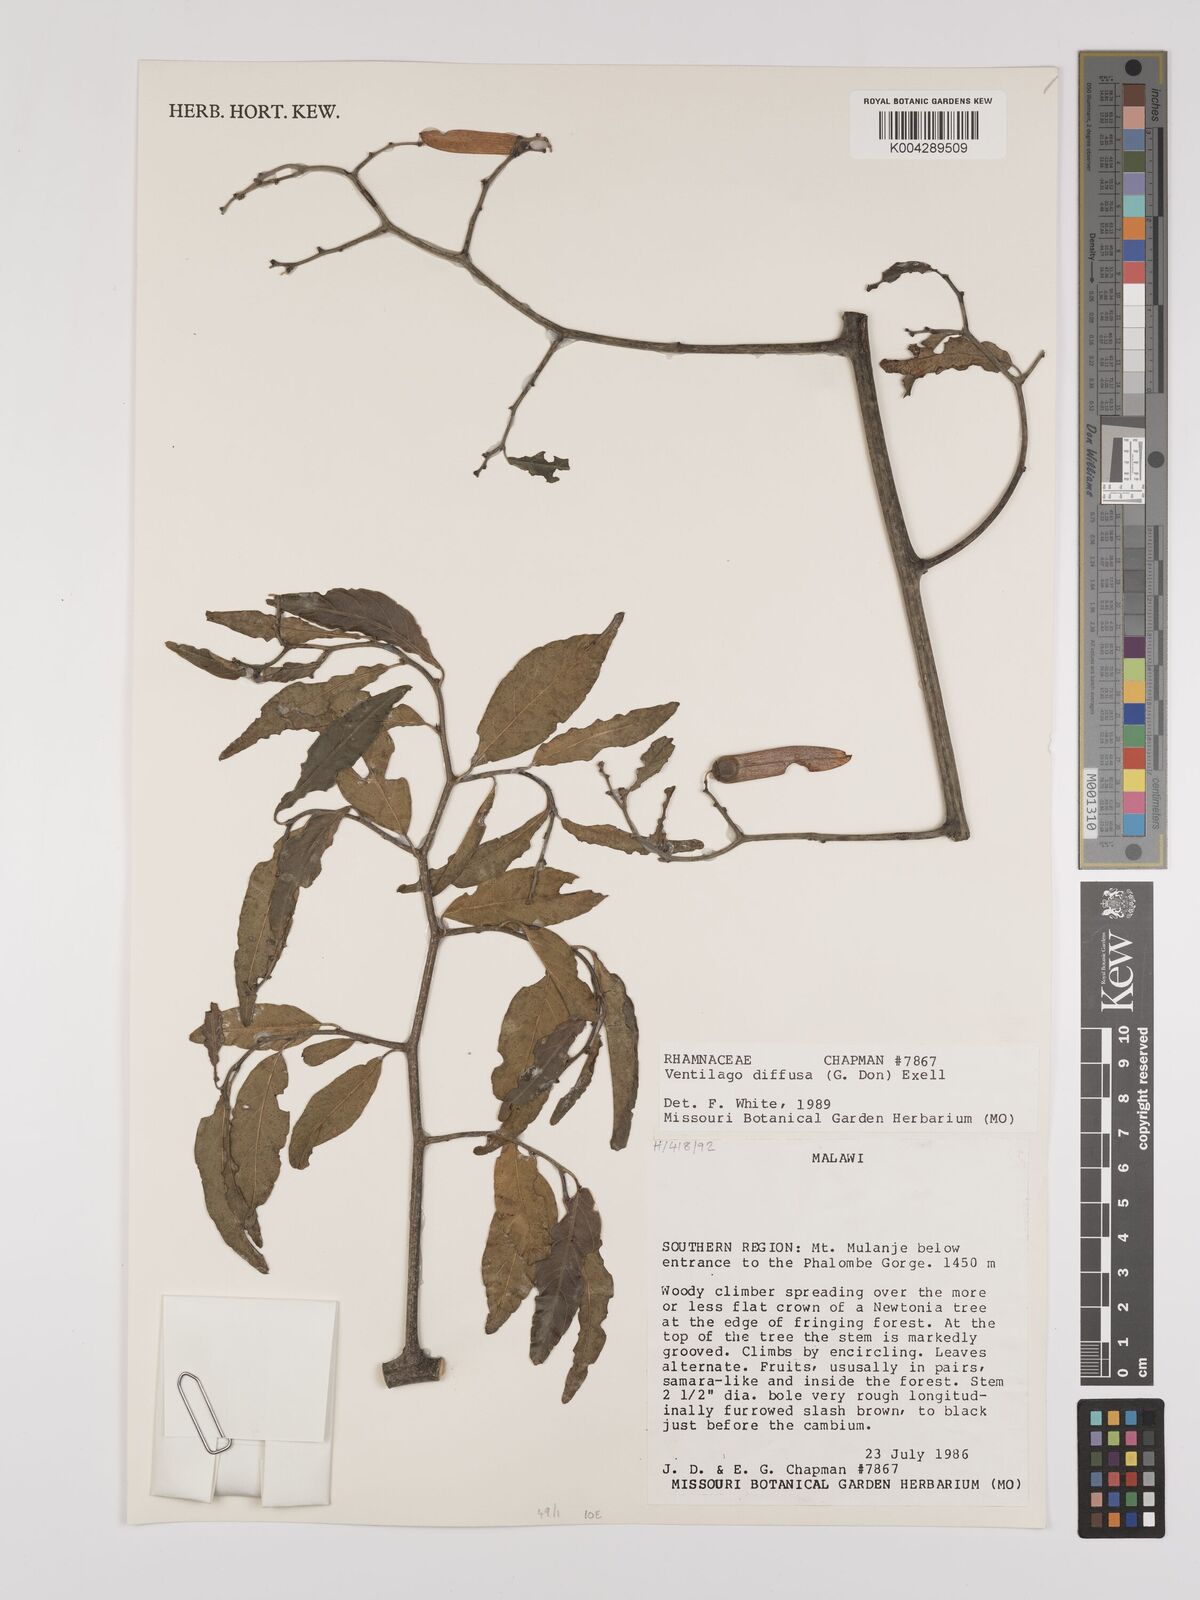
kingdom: Plantae
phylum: Tracheophyta
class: Magnoliopsida
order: Rosales
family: Rhamnaceae
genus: Ventilago
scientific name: Ventilago diffusa
